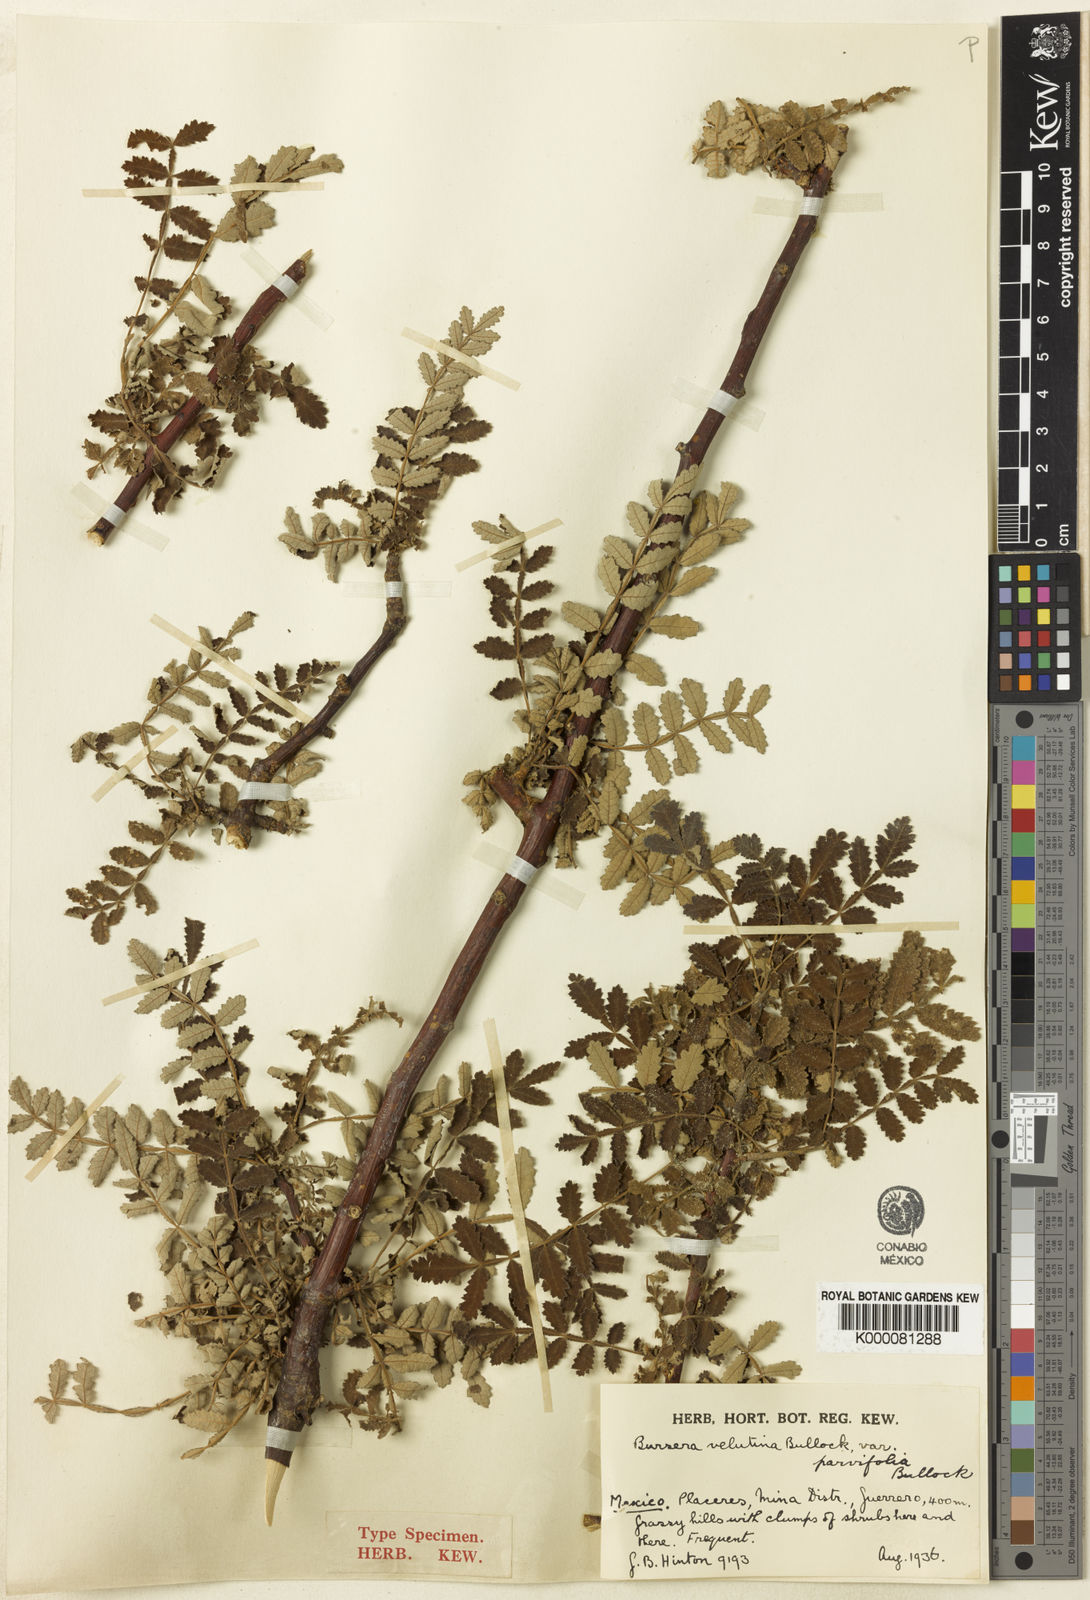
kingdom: Plantae
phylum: Tracheophyta
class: Magnoliopsida
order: Sapindales
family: Burseraceae
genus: Bursera
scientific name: Bursera velutina
